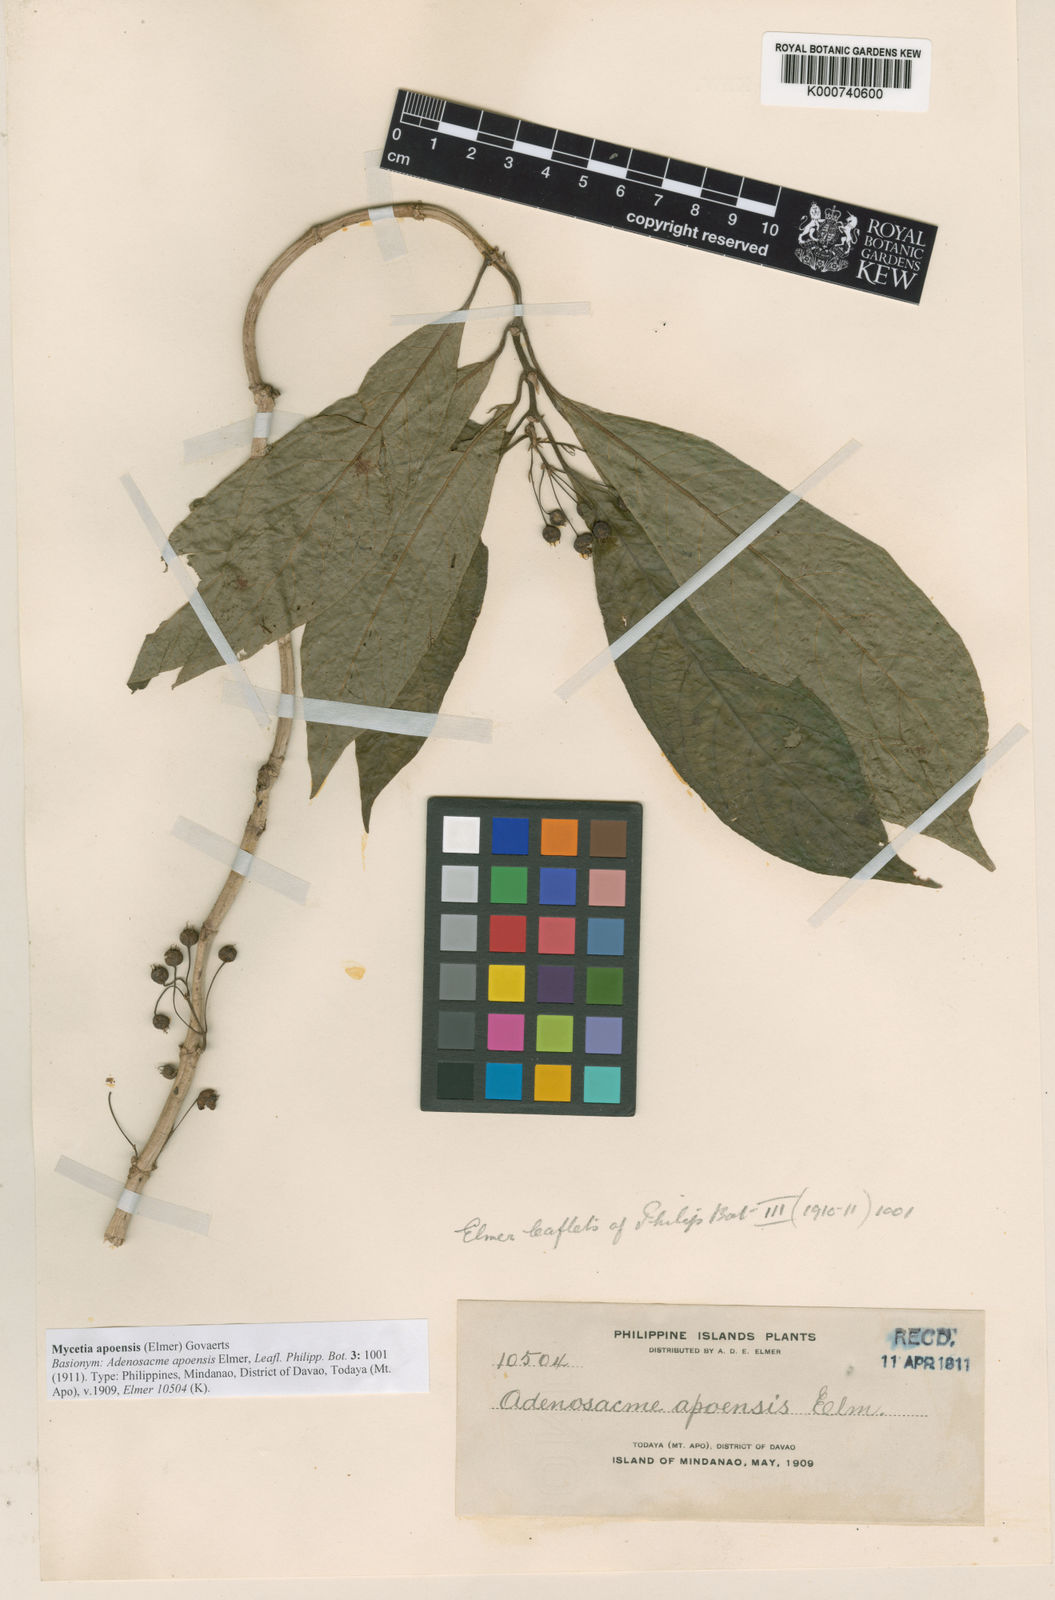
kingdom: Plantae
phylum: Tracheophyta
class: Magnoliopsida
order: Gentianales
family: Rubiaceae
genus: Mycetia
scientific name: Mycetia cauliflora
